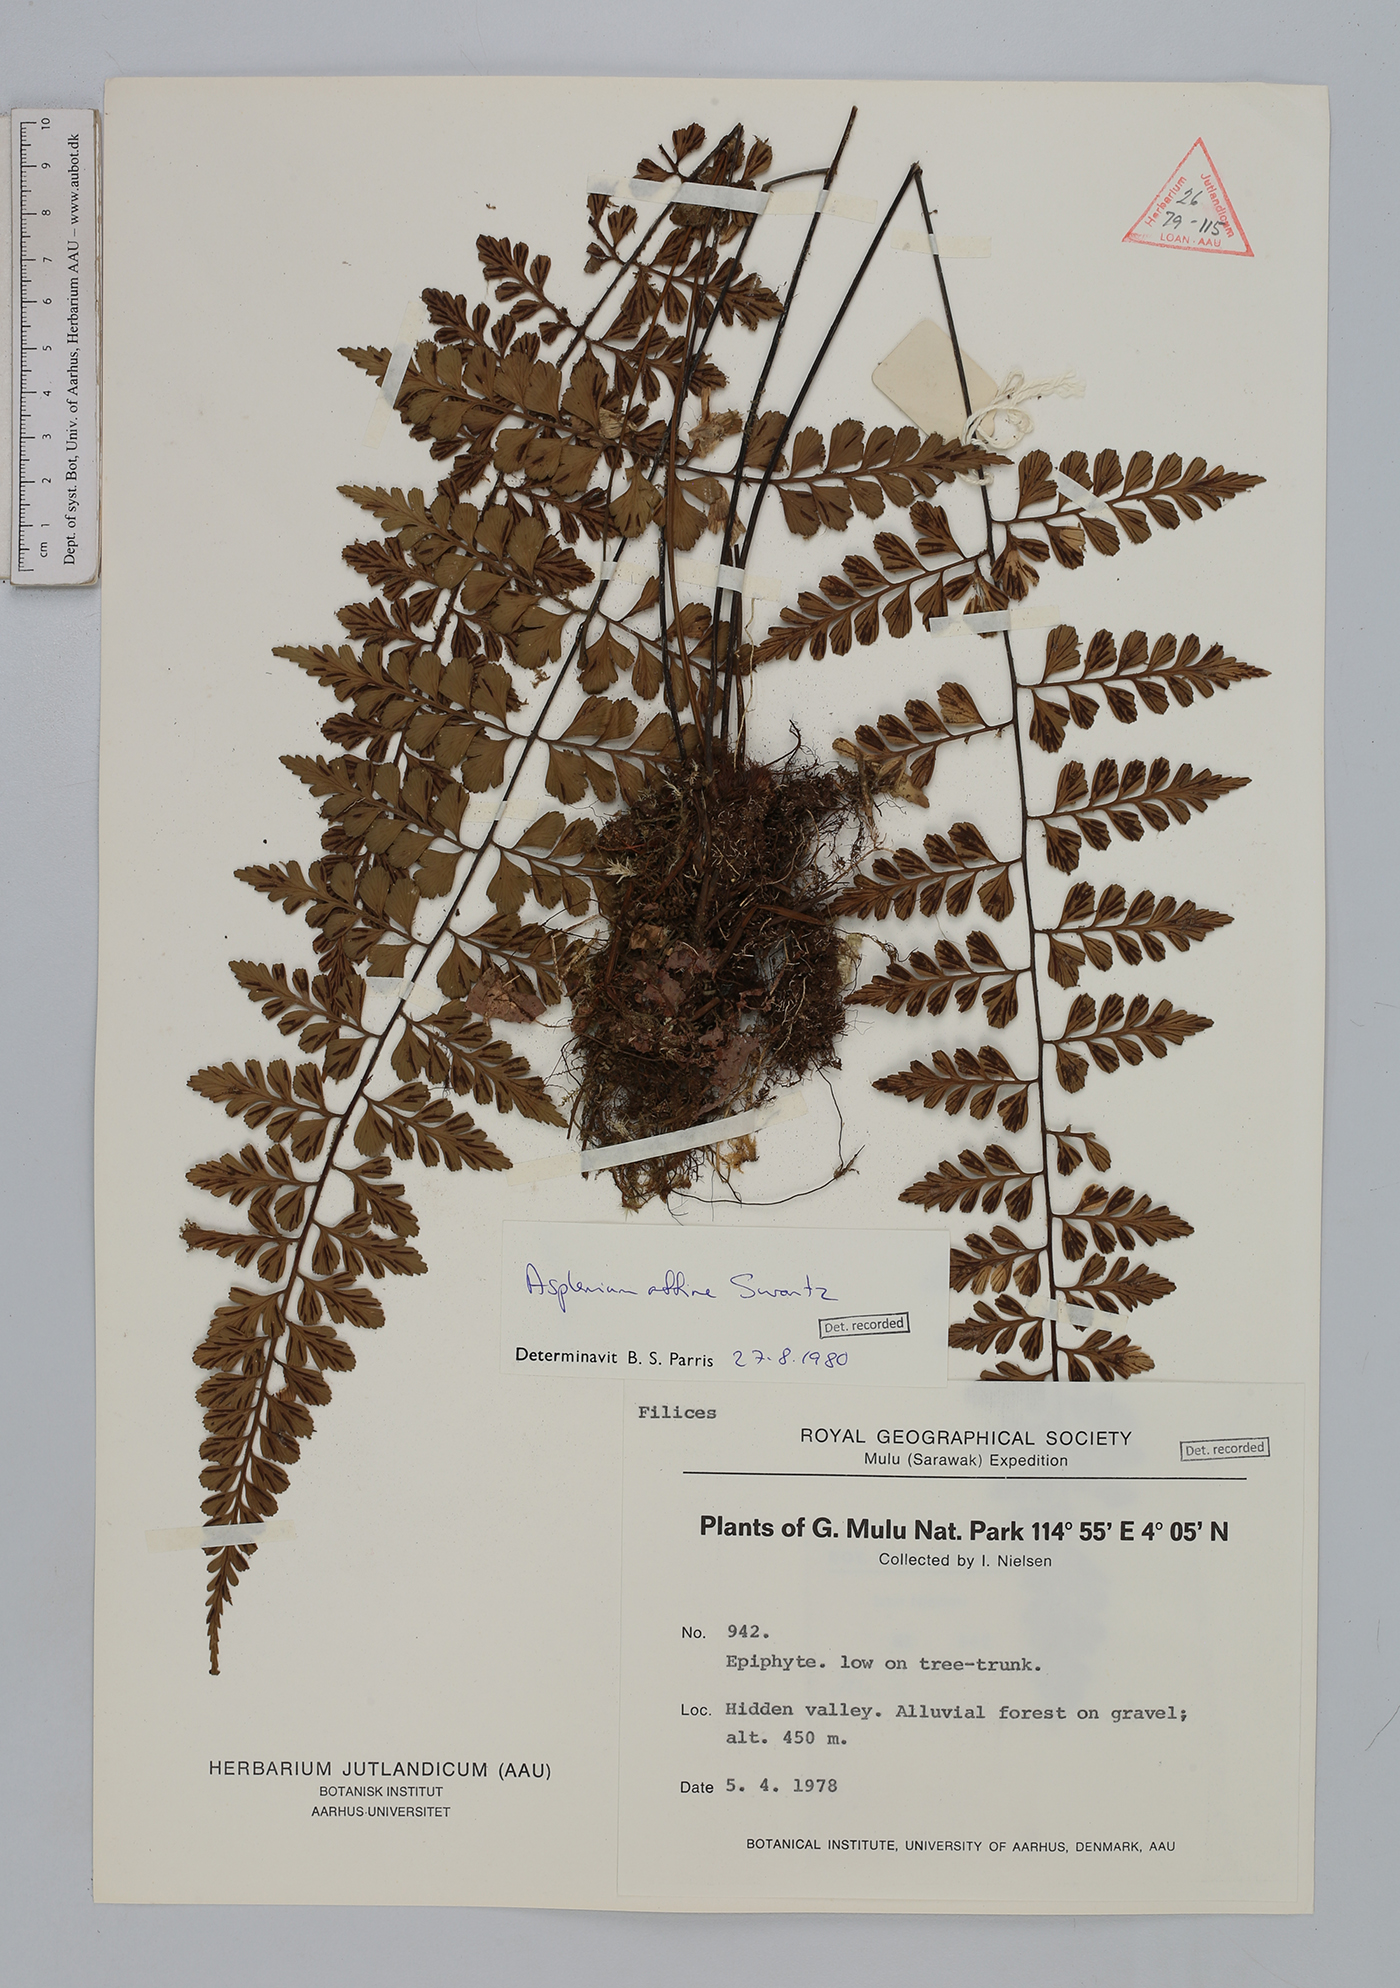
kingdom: Plantae
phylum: Tracheophyta
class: Polypodiopsida
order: Polypodiales
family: Aspleniaceae
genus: Asplenium
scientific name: Asplenium affine
